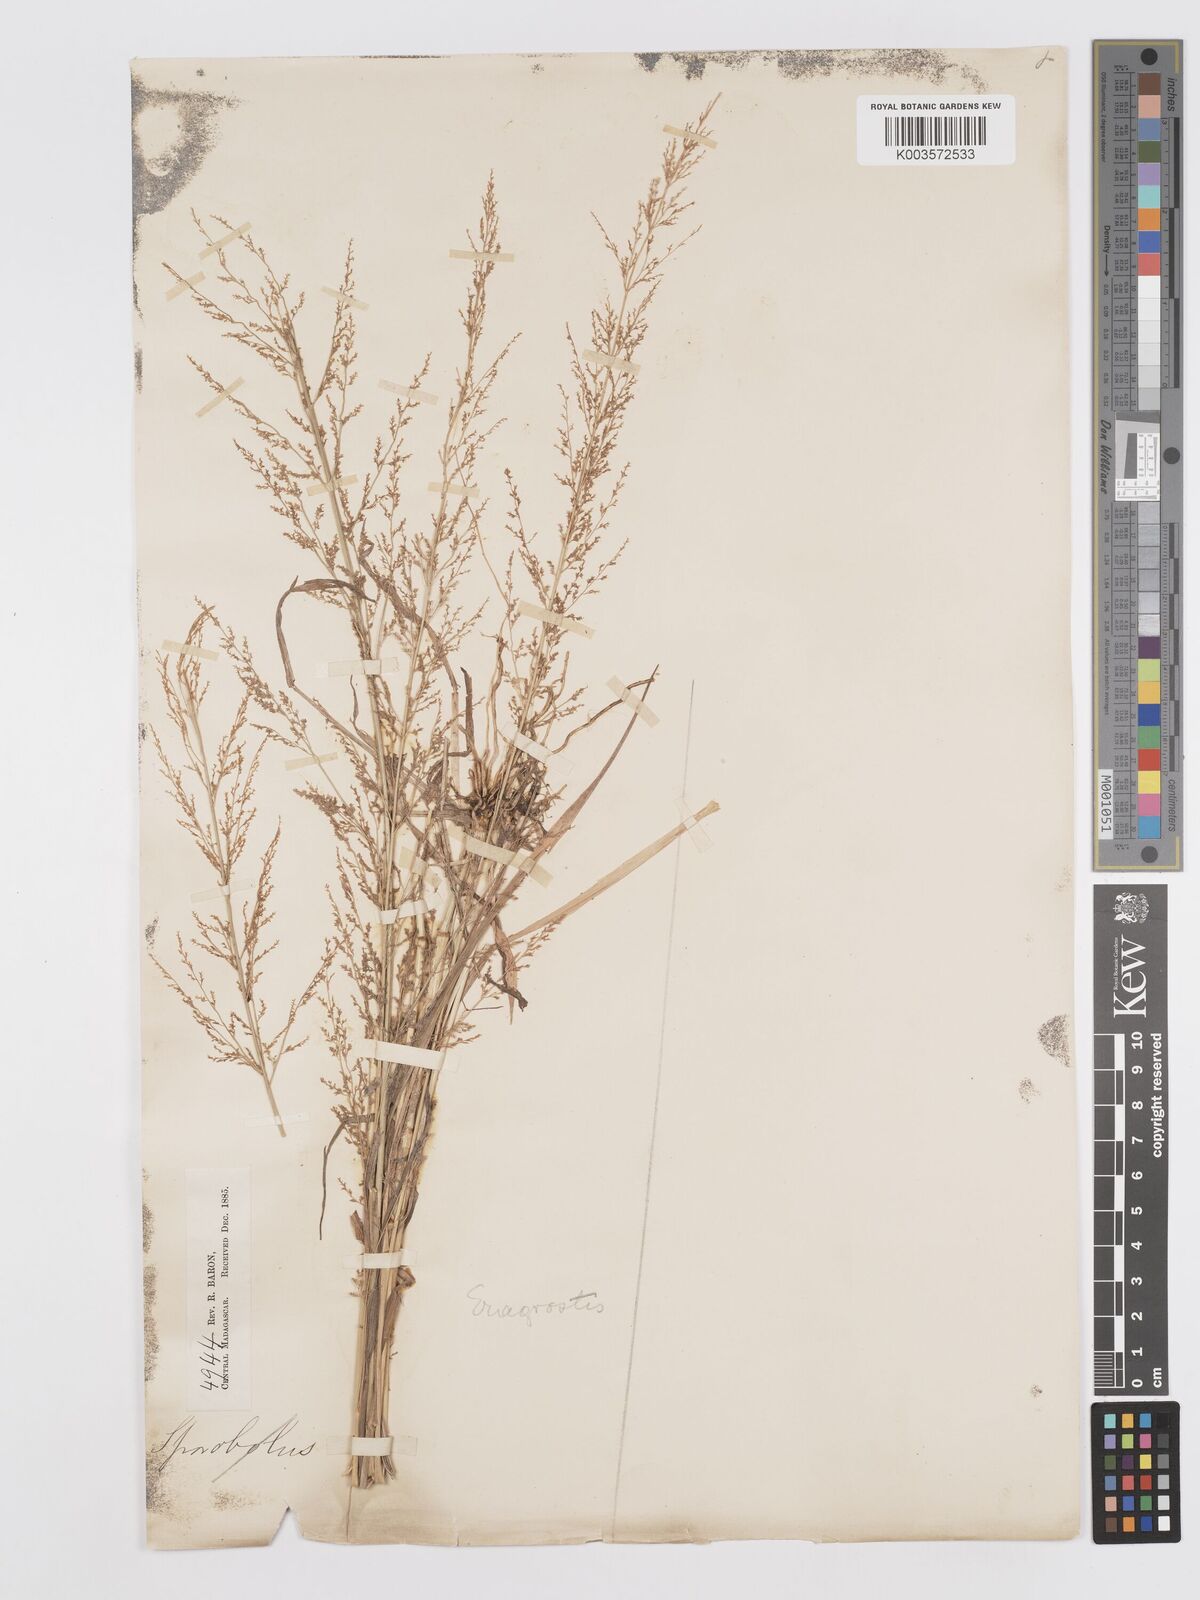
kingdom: Plantae
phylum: Tracheophyta
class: Liliopsida
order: Poales
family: Poaceae
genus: Eragrostis
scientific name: Eragrostis japonica
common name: Pond lovegrass
